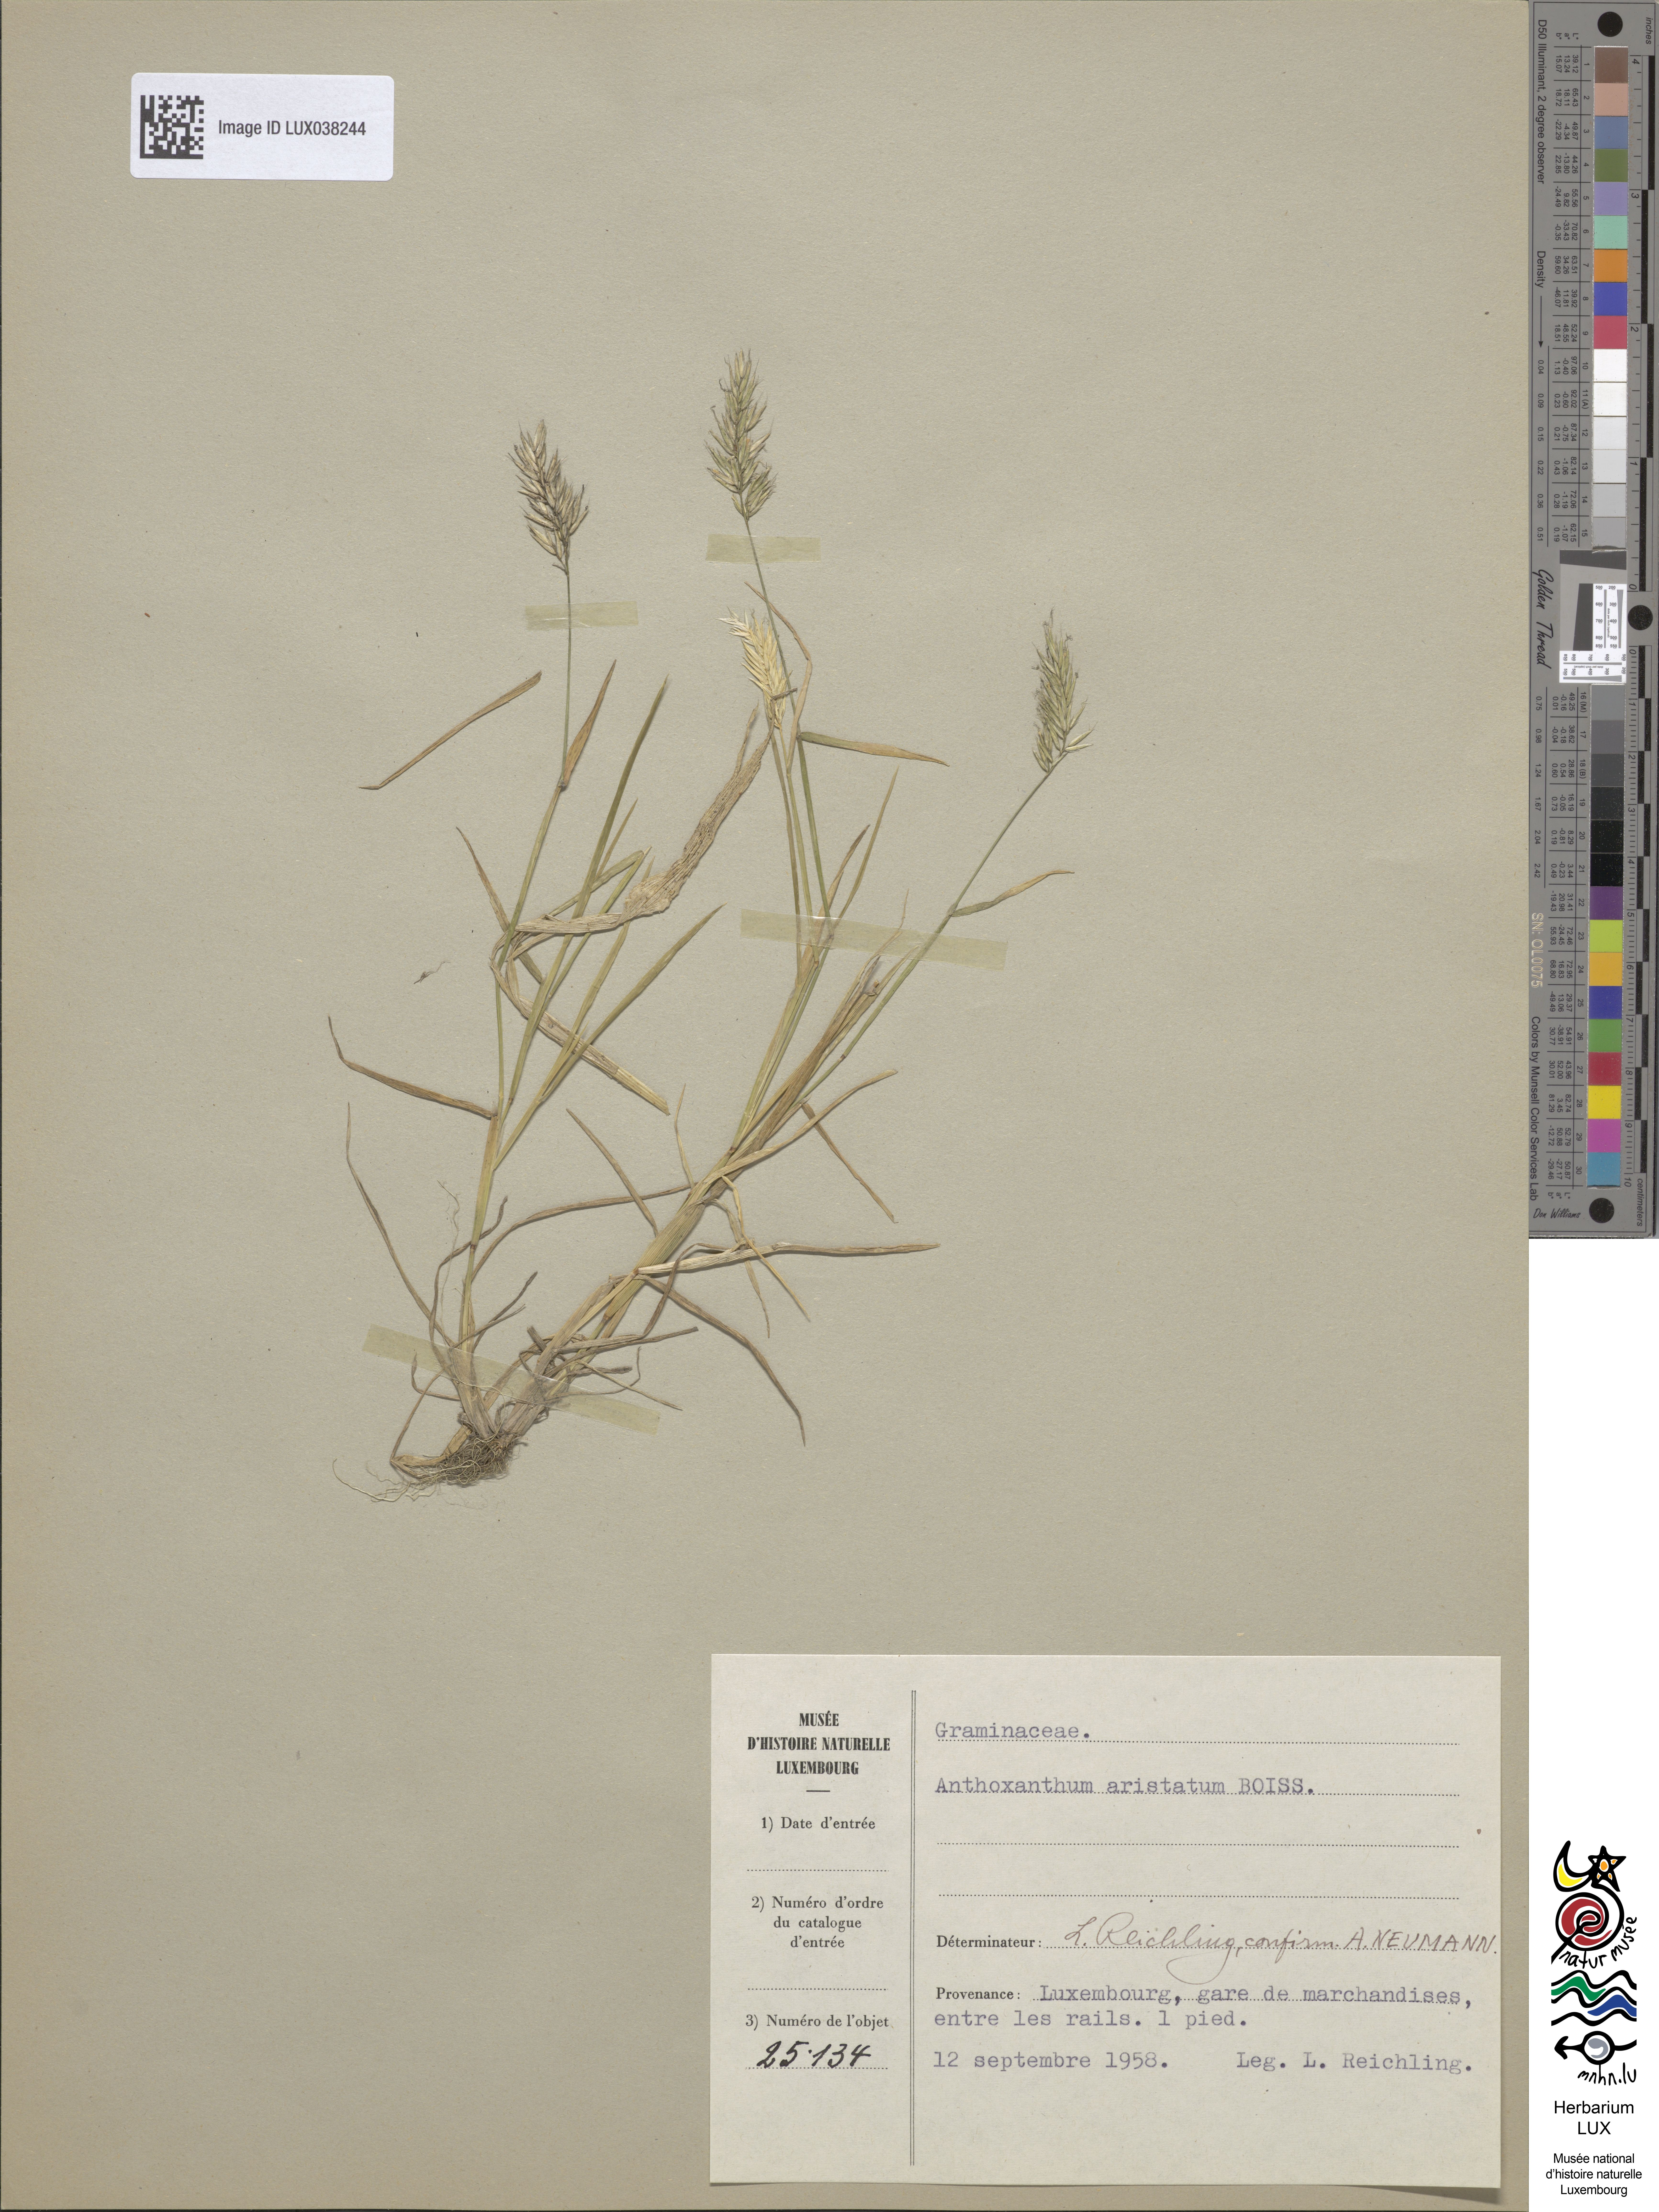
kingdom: Plantae
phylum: Tracheophyta
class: Liliopsida
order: Poales
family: Poaceae
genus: Anthoxanthum
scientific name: Anthoxanthum aristatum
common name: Annual vernal-grass
